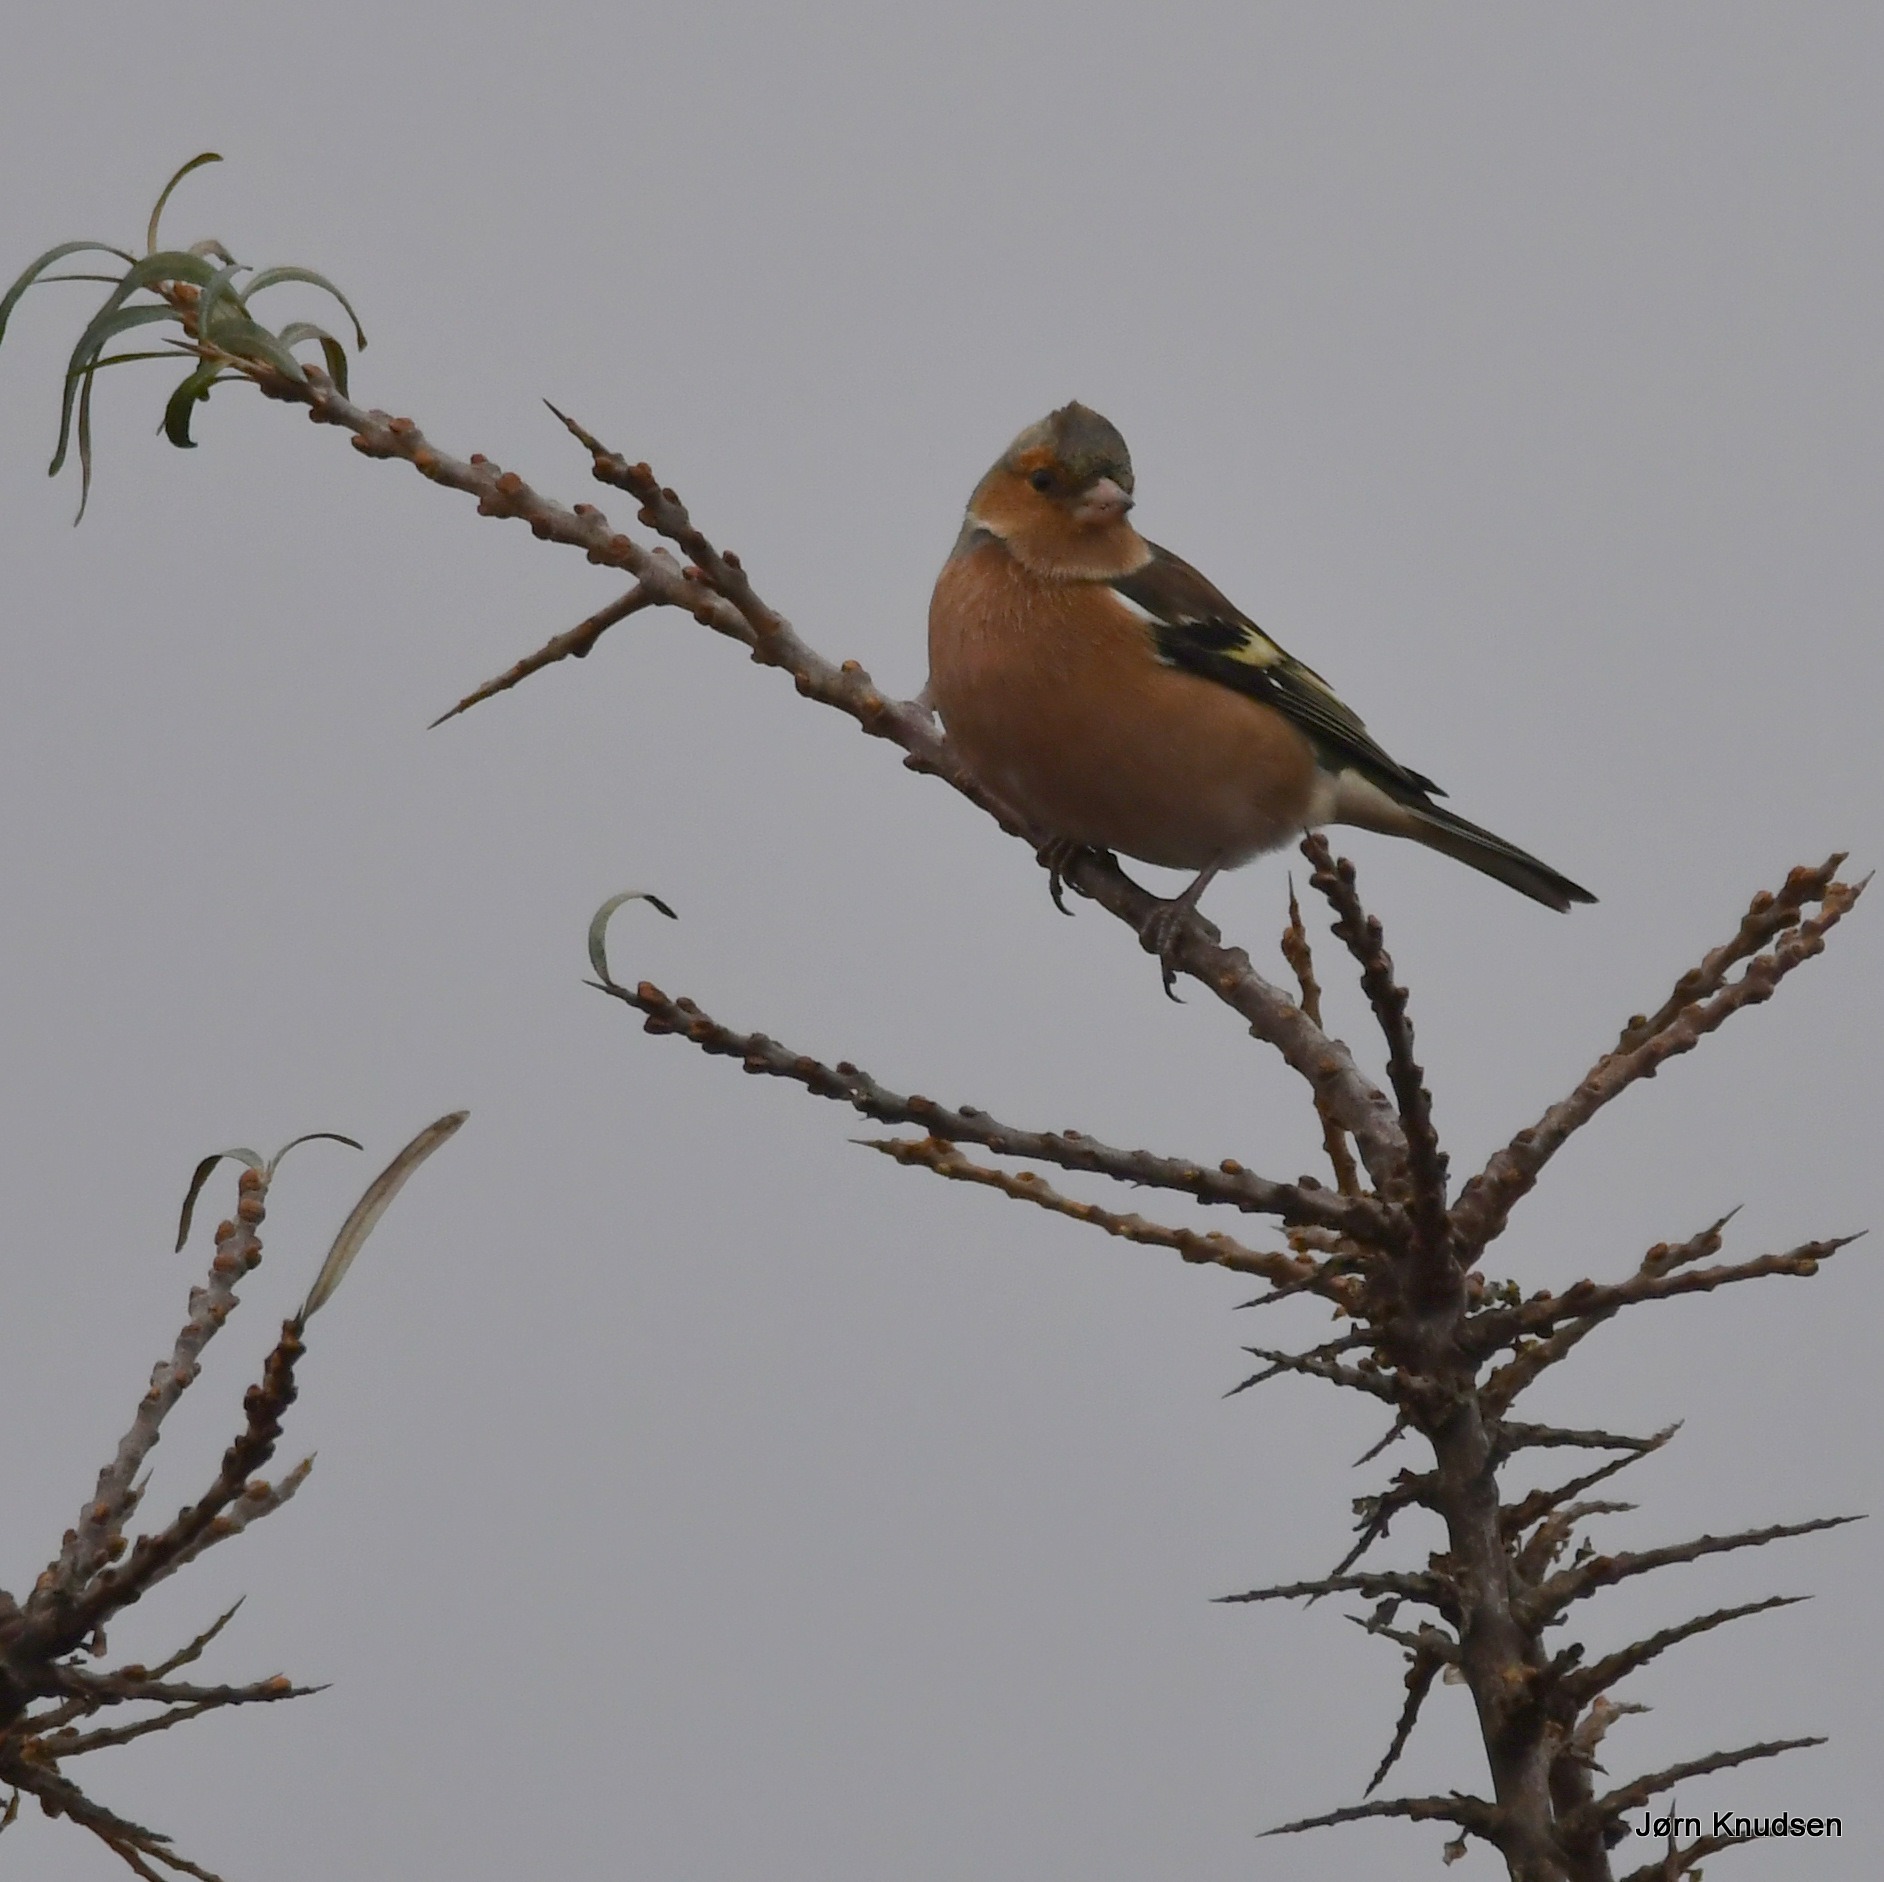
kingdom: Animalia
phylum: Chordata
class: Aves
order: Passeriformes
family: Fringillidae
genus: Fringilla
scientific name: Fringilla coelebs
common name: Bogfinke
